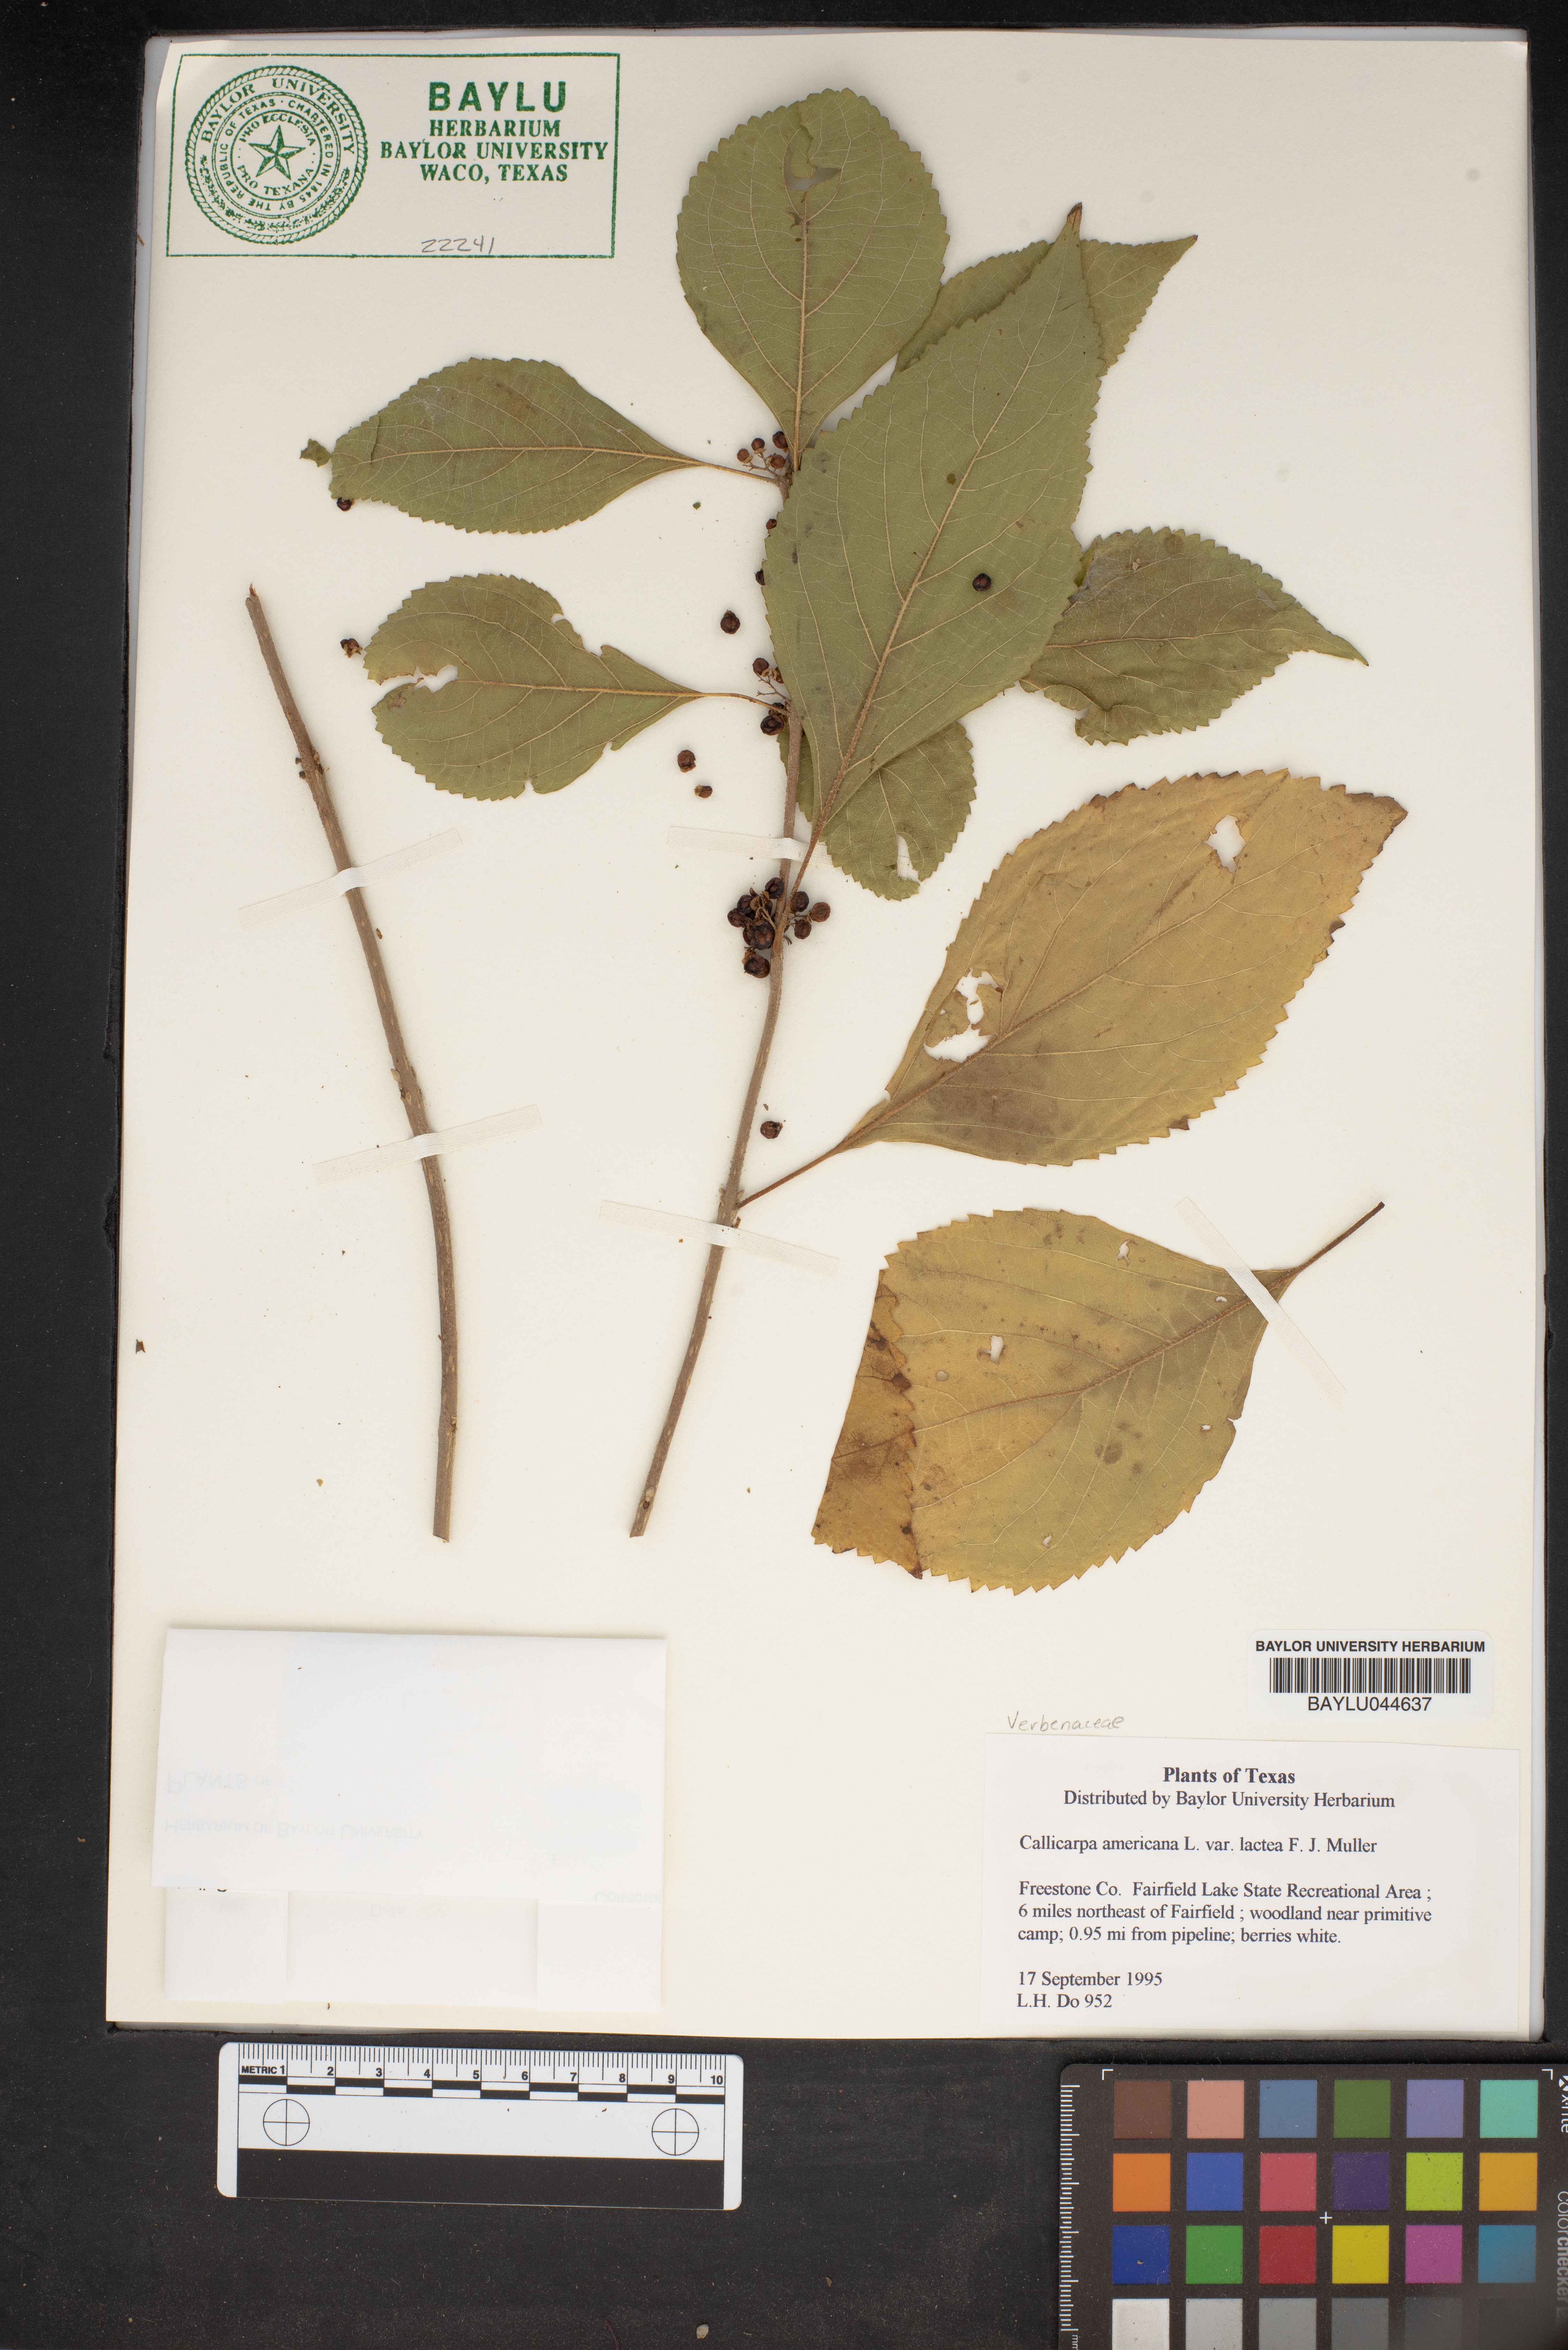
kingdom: Plantae
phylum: Tracheophyta
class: Magnoliopsida
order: Lamiales
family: Lamiaceae
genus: Callicarpa
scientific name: Callicarpa americana
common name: American beautyberry
